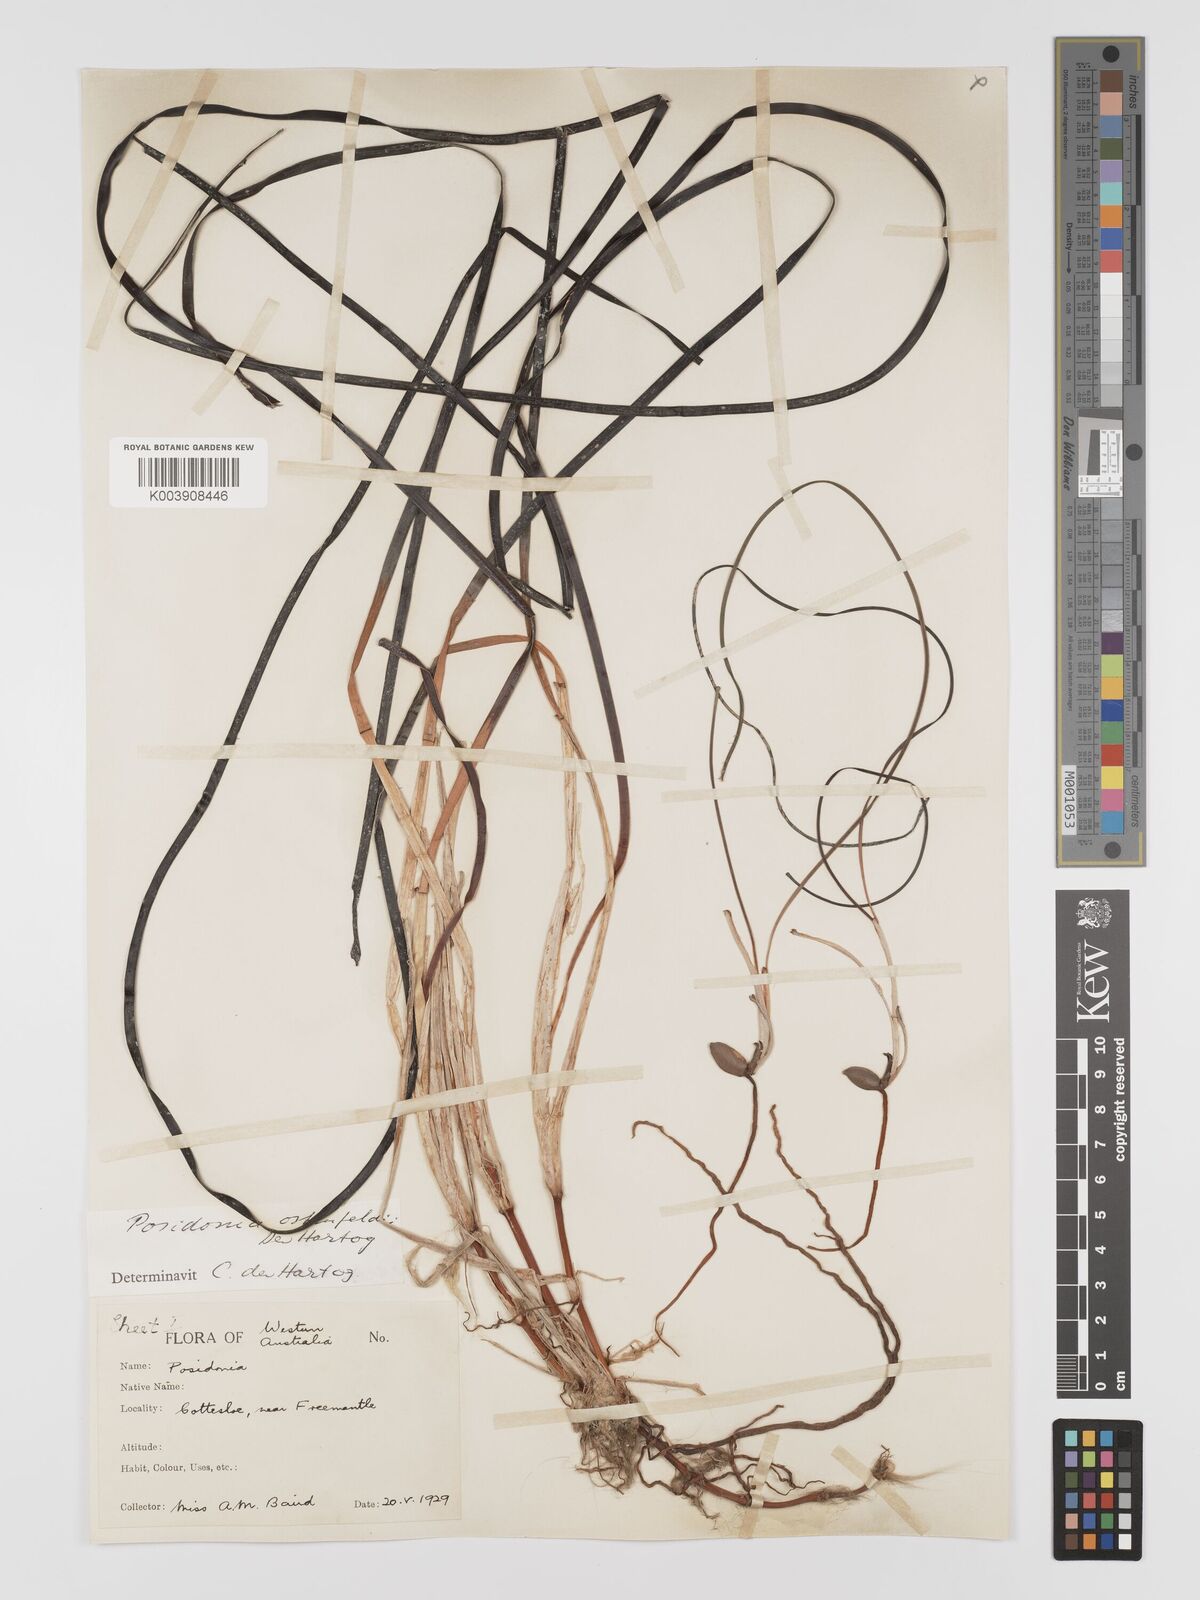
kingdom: Plantae
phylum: Tracheophyta
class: Liliopsida
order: Alismatales
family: Posidoniaceae
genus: Posidonia
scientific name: Posidonia ostenfeldii
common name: Species code: pf
